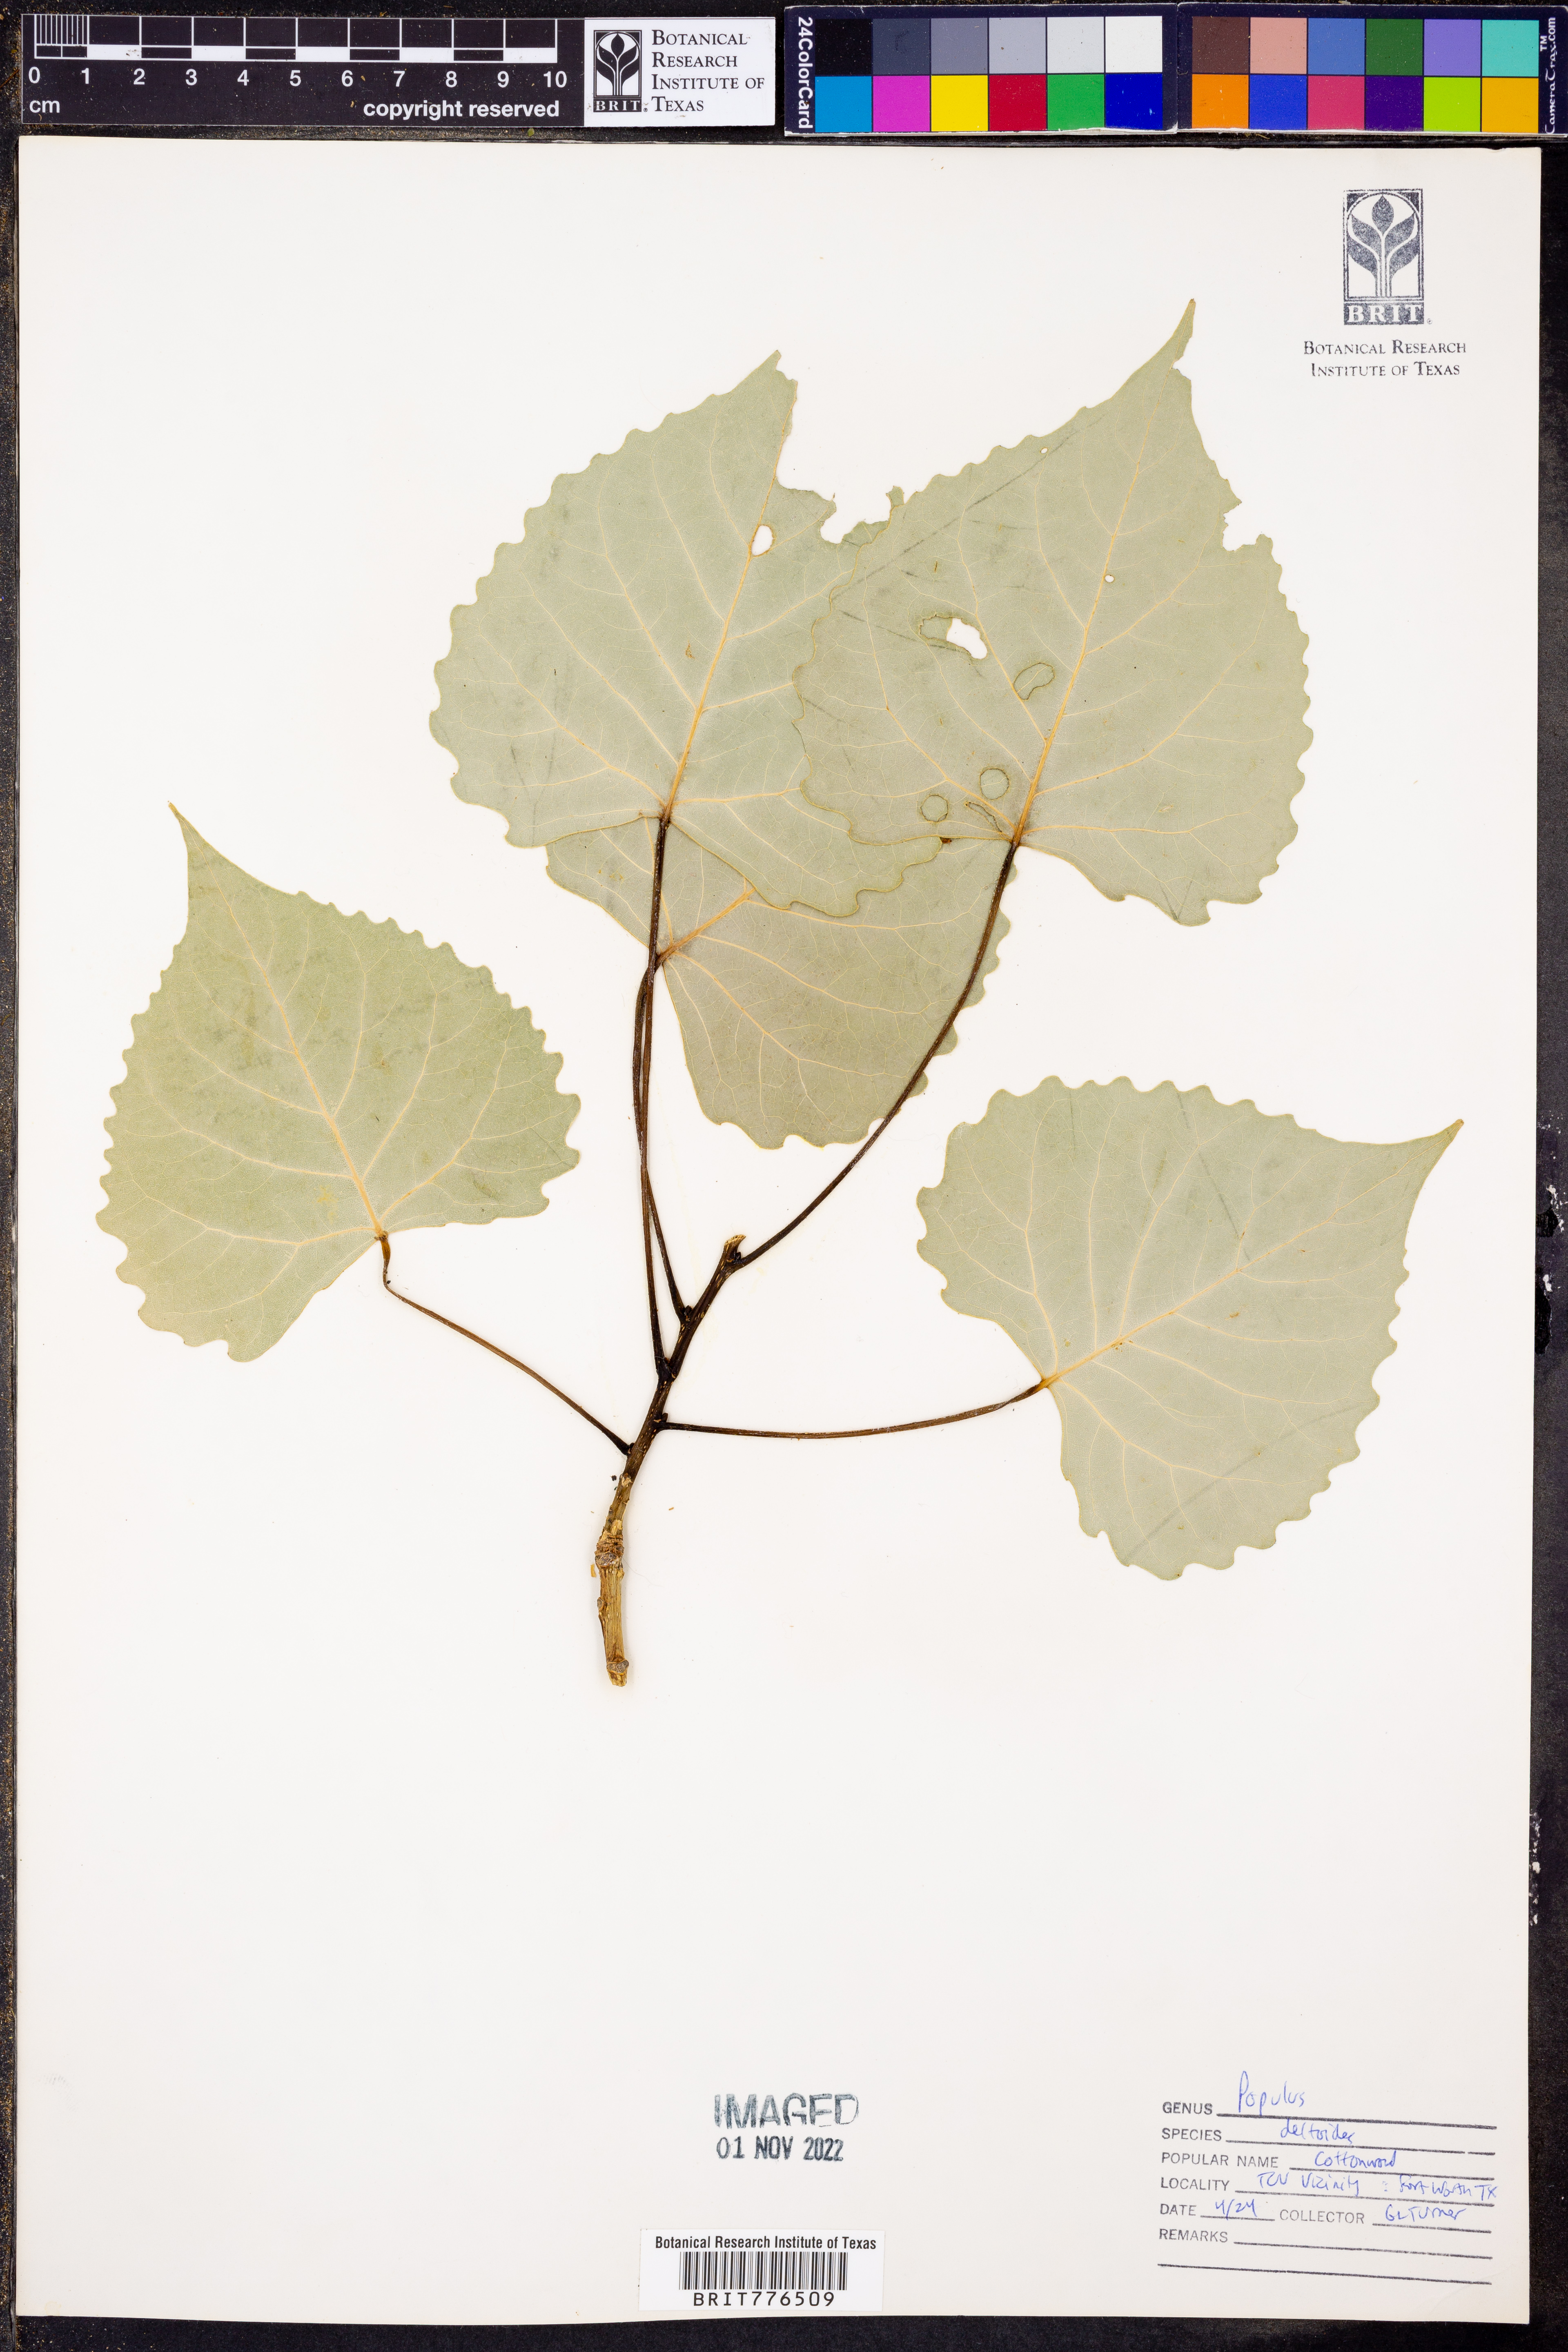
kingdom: Plantae
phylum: Tracheophyta
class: Magnoliopsida
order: Malpighiales
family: Salicaceae
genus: Populus
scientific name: Populus deltoides
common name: Eastern cottonwood
